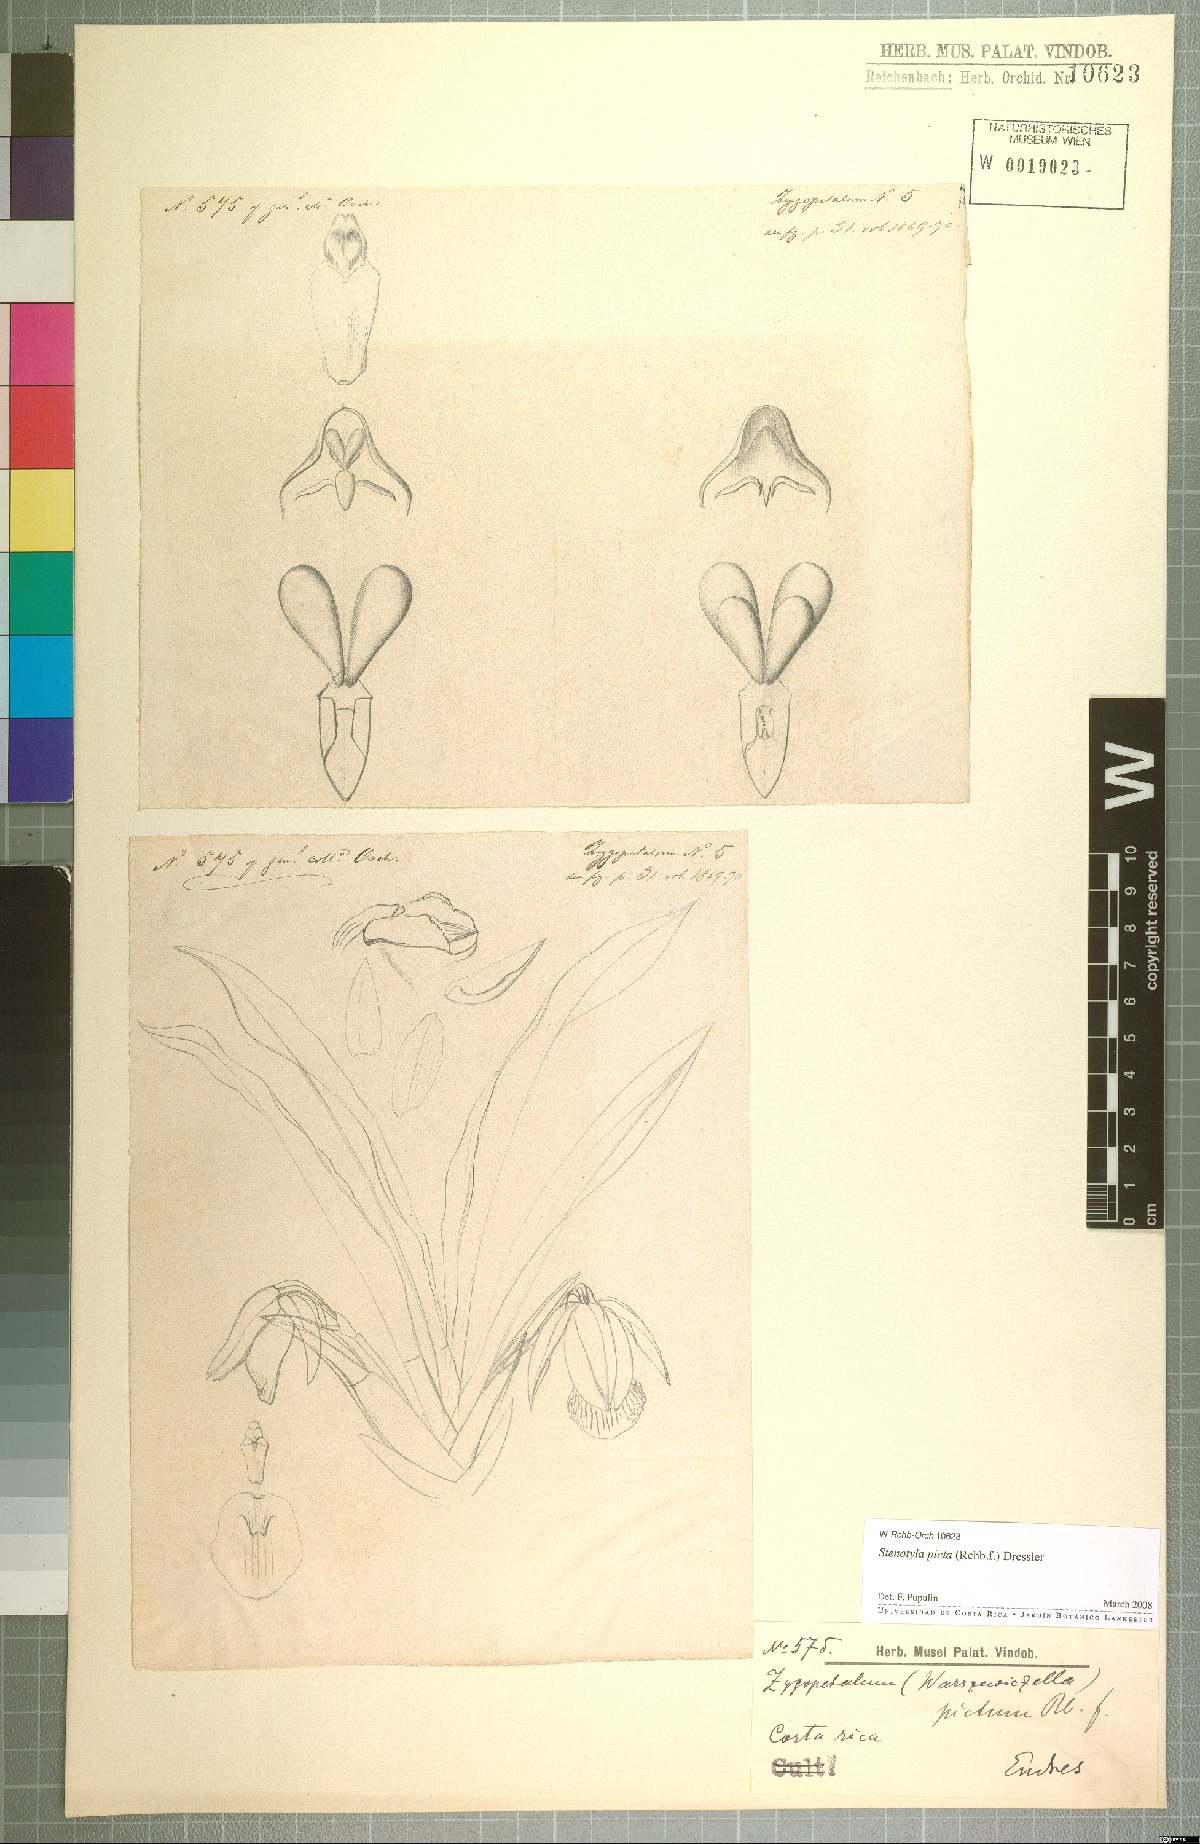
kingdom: Plantae
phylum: Tracheophyta
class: Liliopsida
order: Asparagales
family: Orchidaceae
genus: Stenotyla
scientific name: Stenotyla picta
